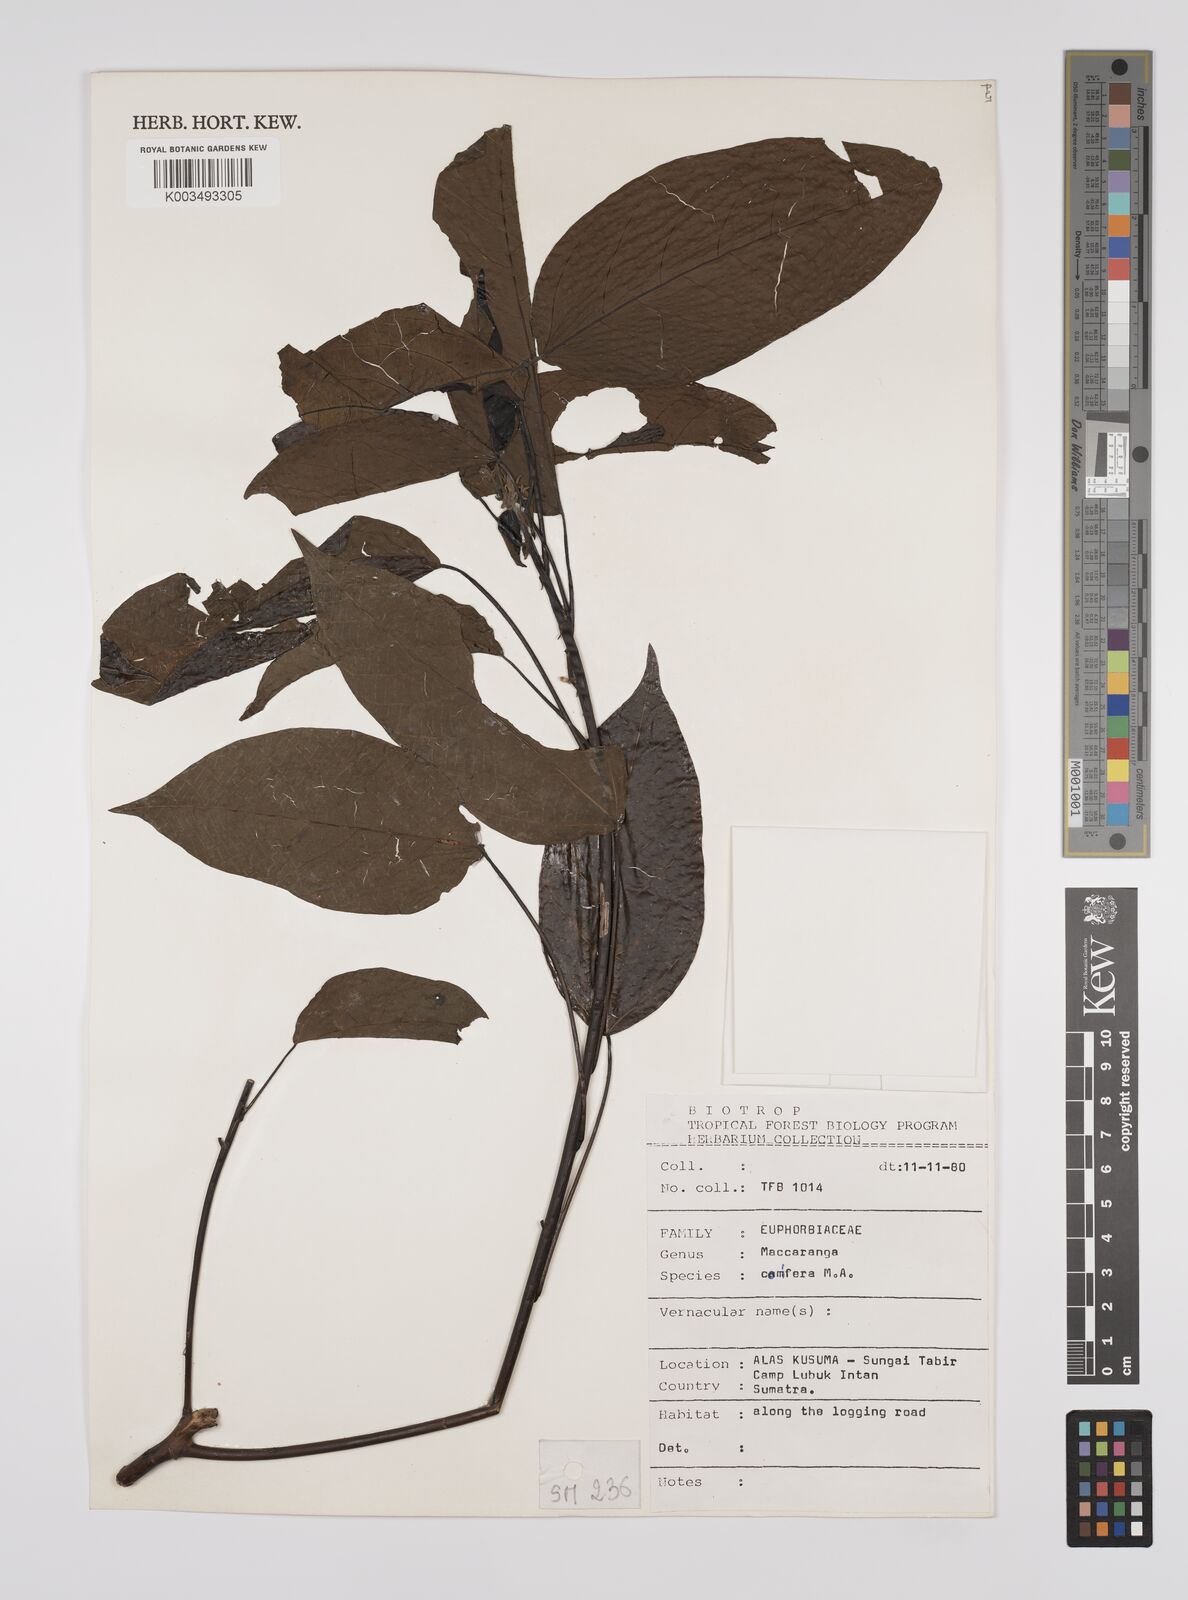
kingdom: Plantae
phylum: Tracheophyta
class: Magnoliopsida
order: Malpighiales
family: Euphorbiaceae
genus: Macaranga
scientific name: Macaranga conifera
